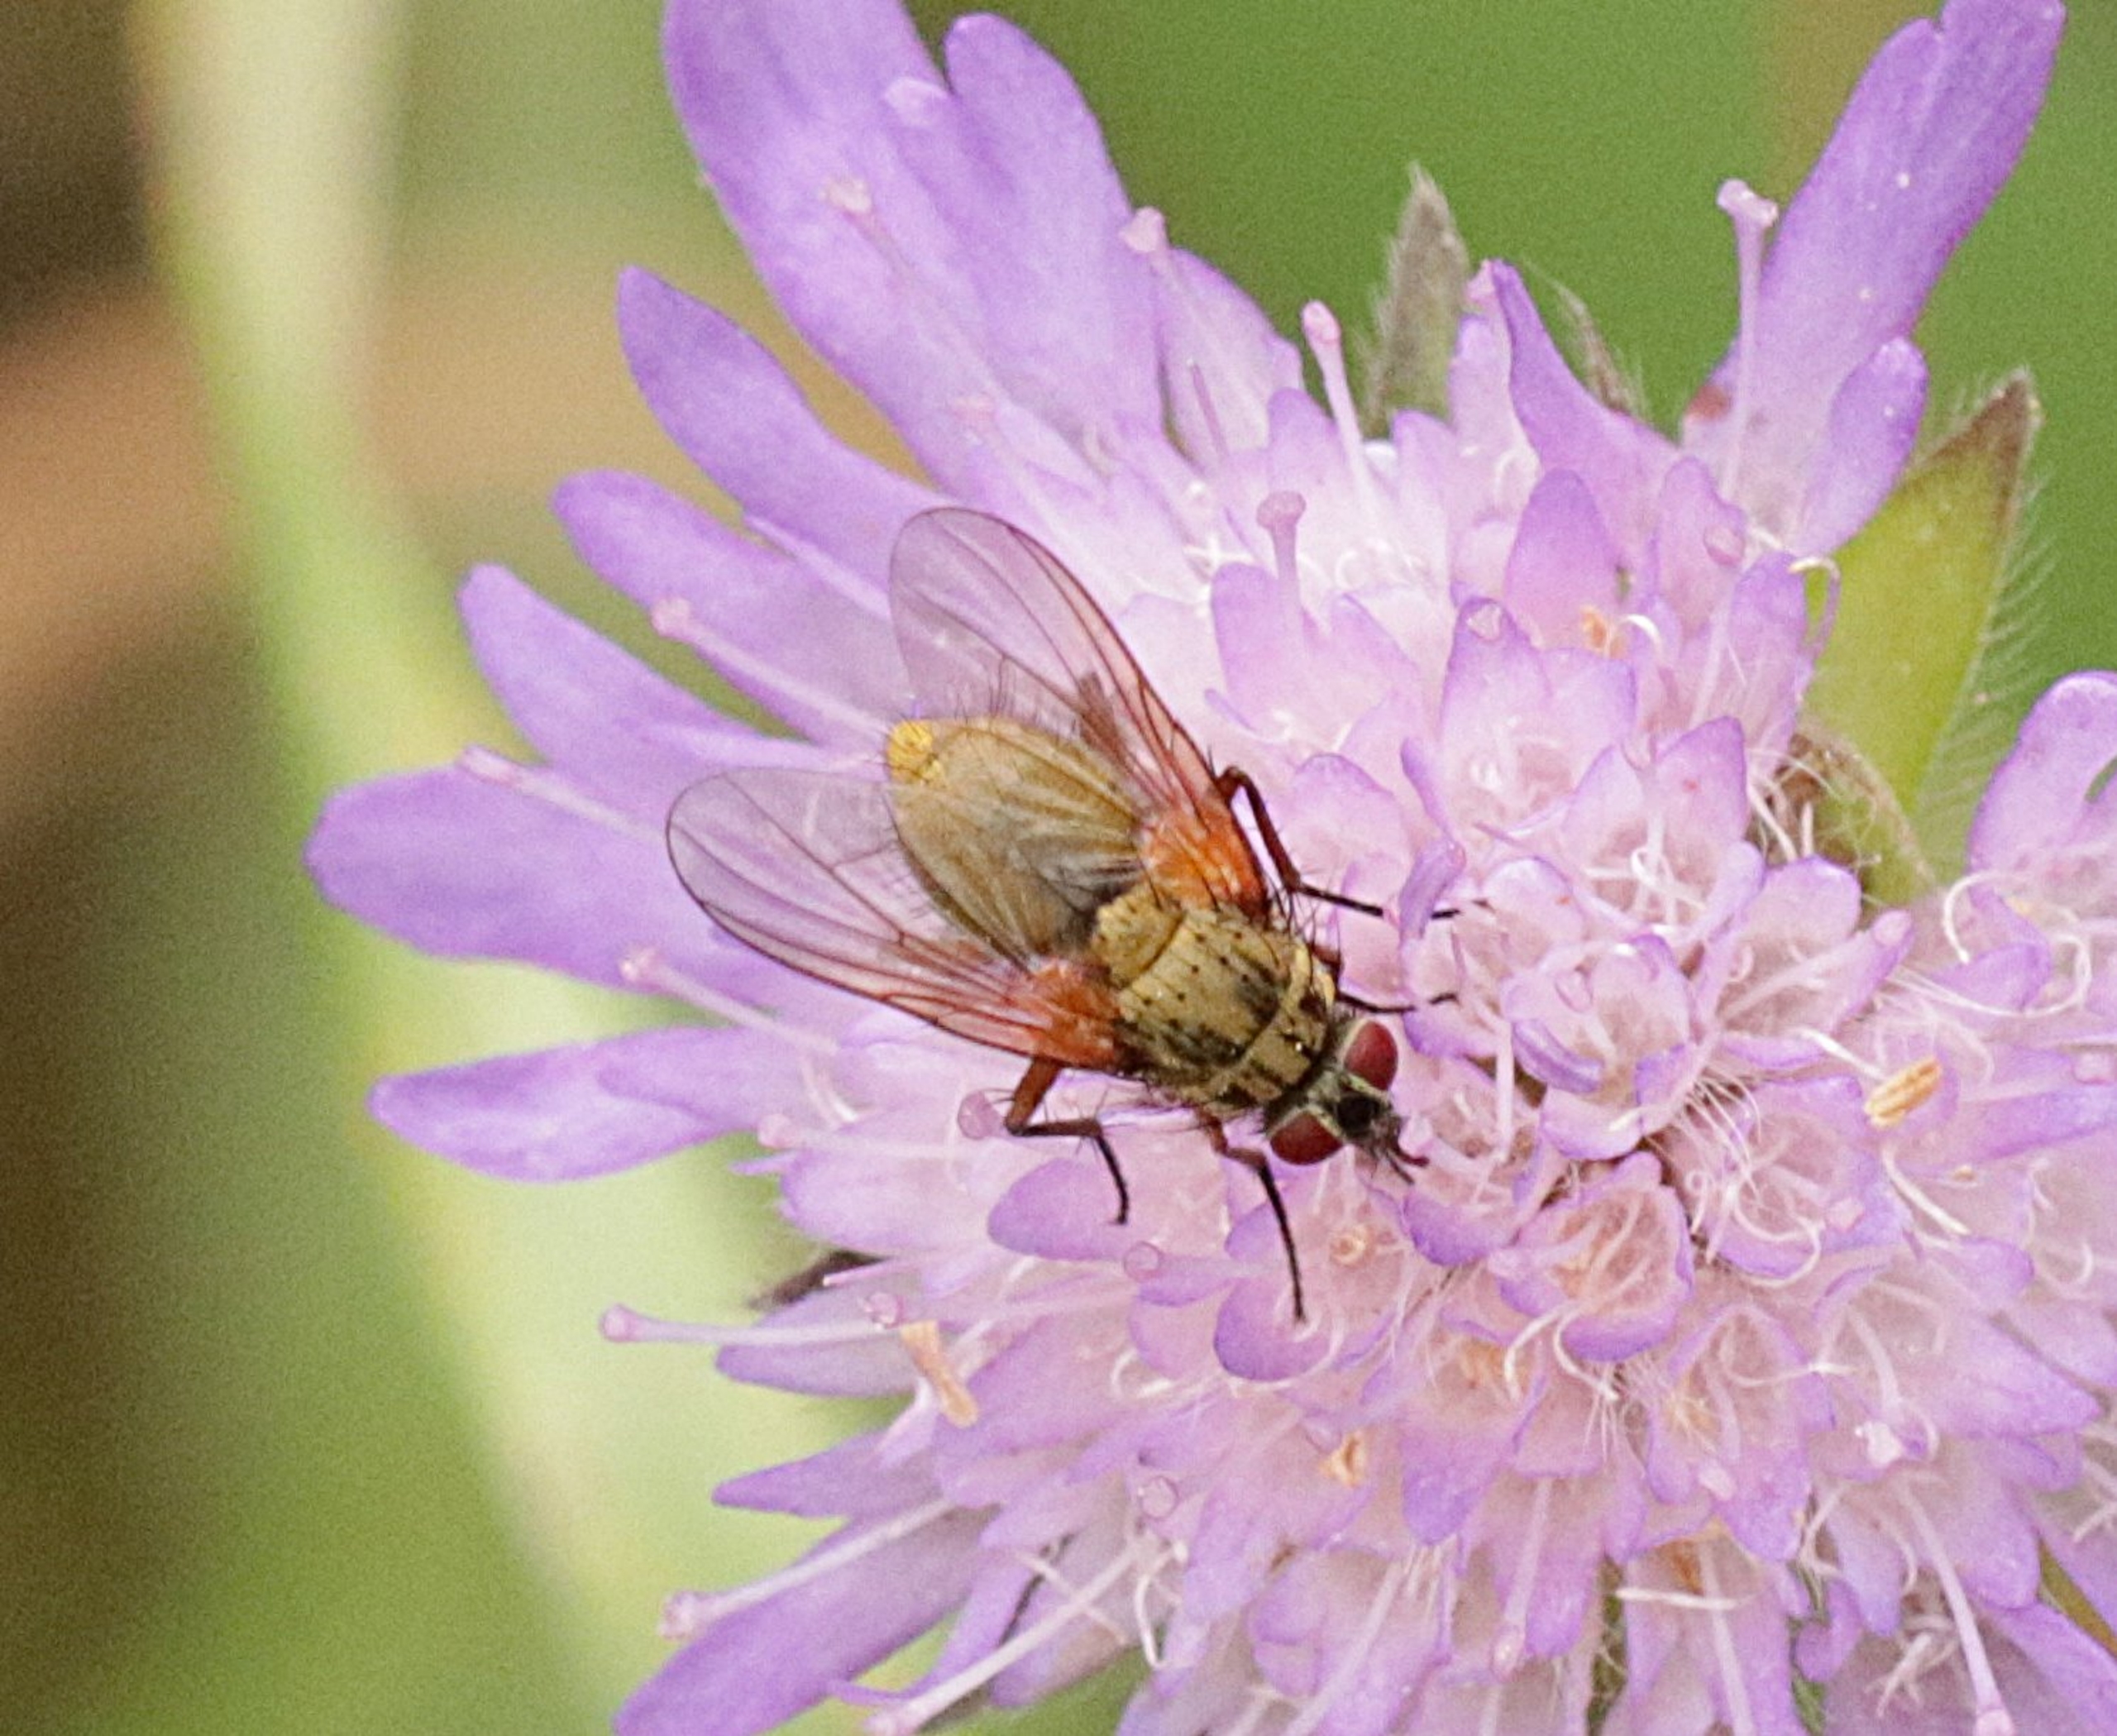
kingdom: Animalia
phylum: Arthropoda
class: Insecta
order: Diptera
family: Muscidae
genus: Phaonia
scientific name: Phaonia angelicae
